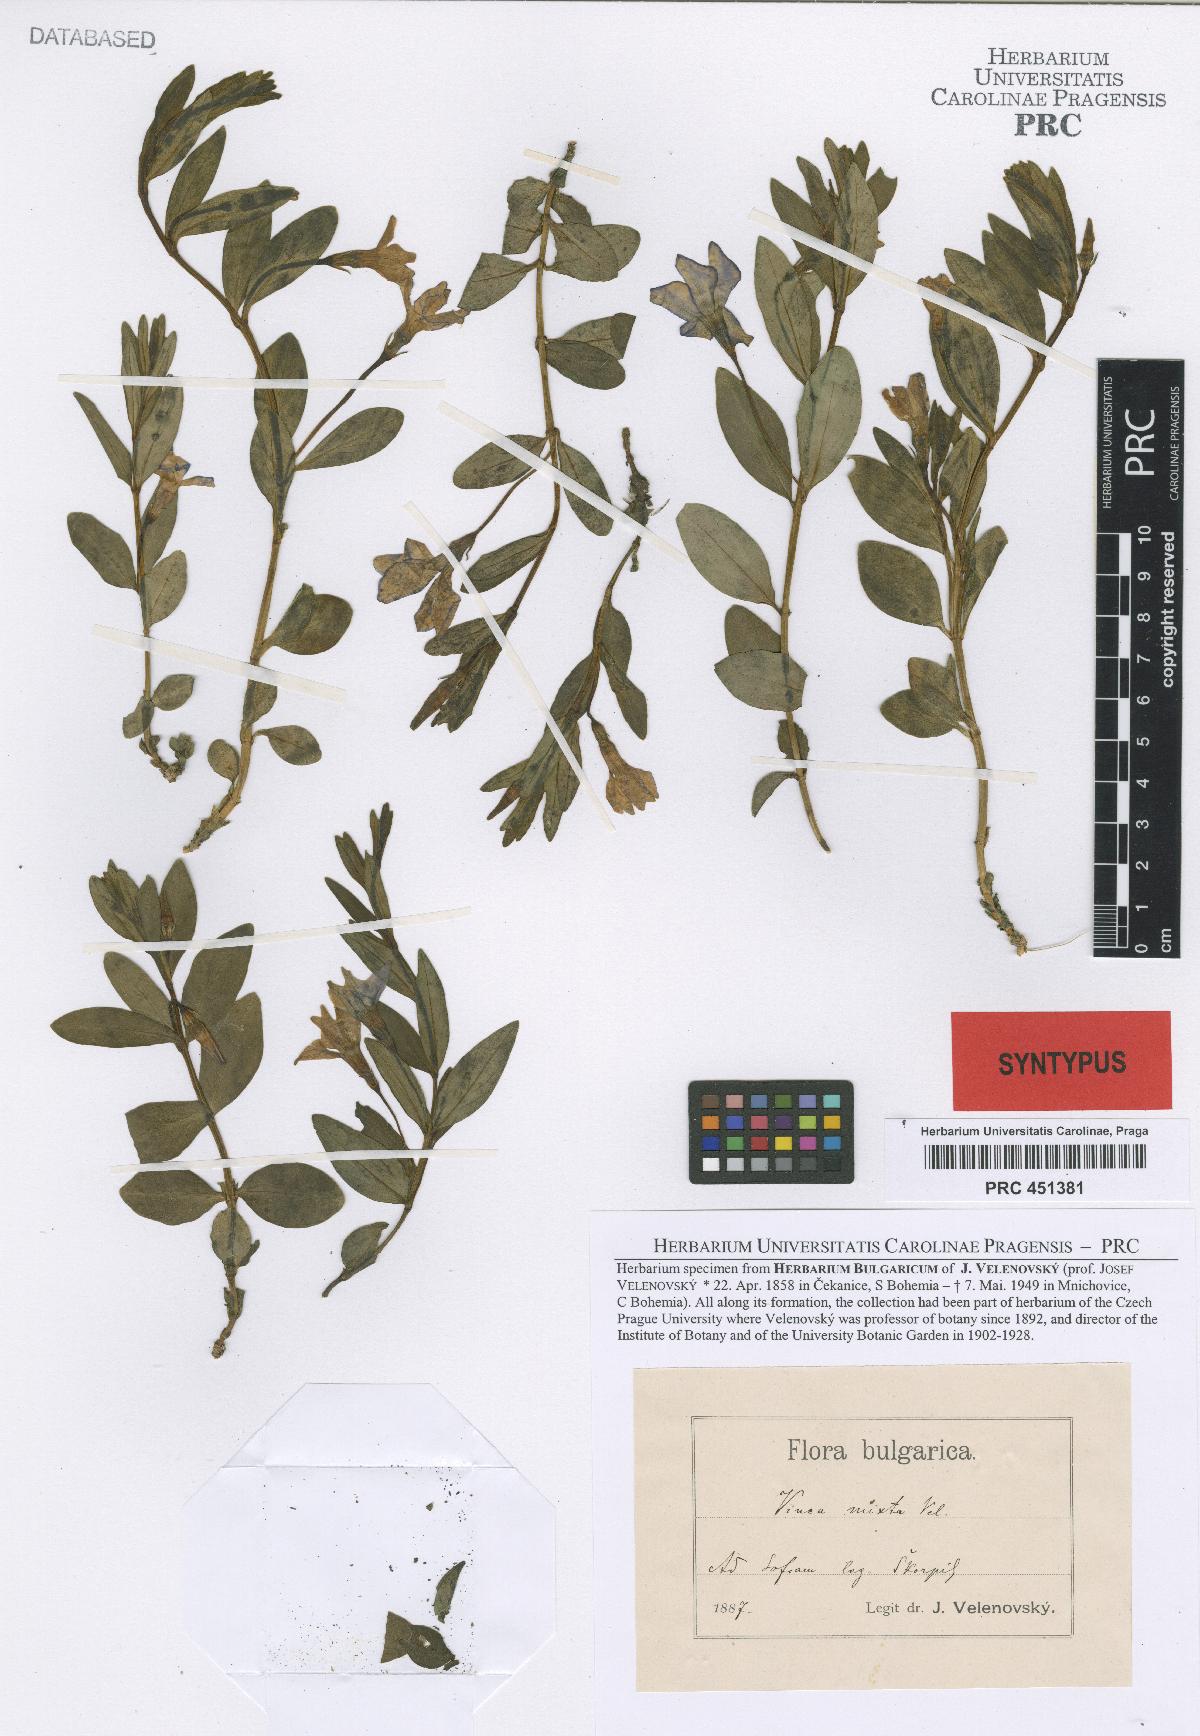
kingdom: Plantae
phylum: Tracheophyta
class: Magnoliopsida
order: Gentianales
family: Apocynaceae
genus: Vinca
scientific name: Vinca herbacea
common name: Herbaceous periwinkle
